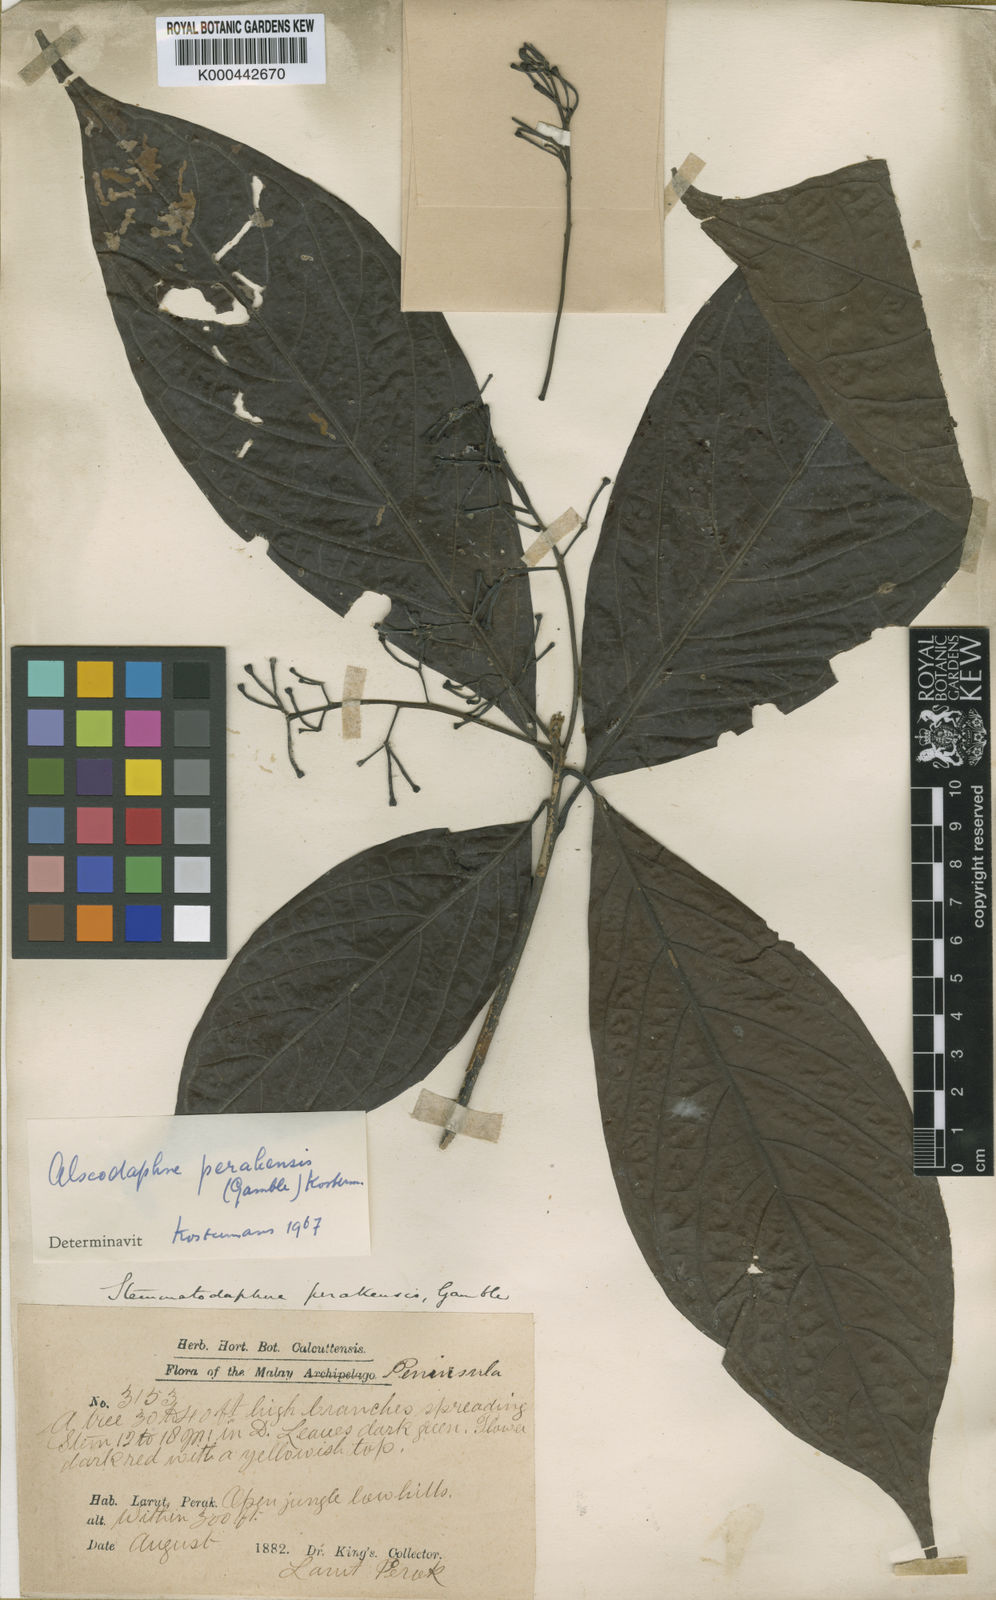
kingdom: Plantae
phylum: Tracheophyta
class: Magnoliopsida
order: Laurales
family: Lauraceae
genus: Alseodaphne
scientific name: Alseodaphne perakensis
